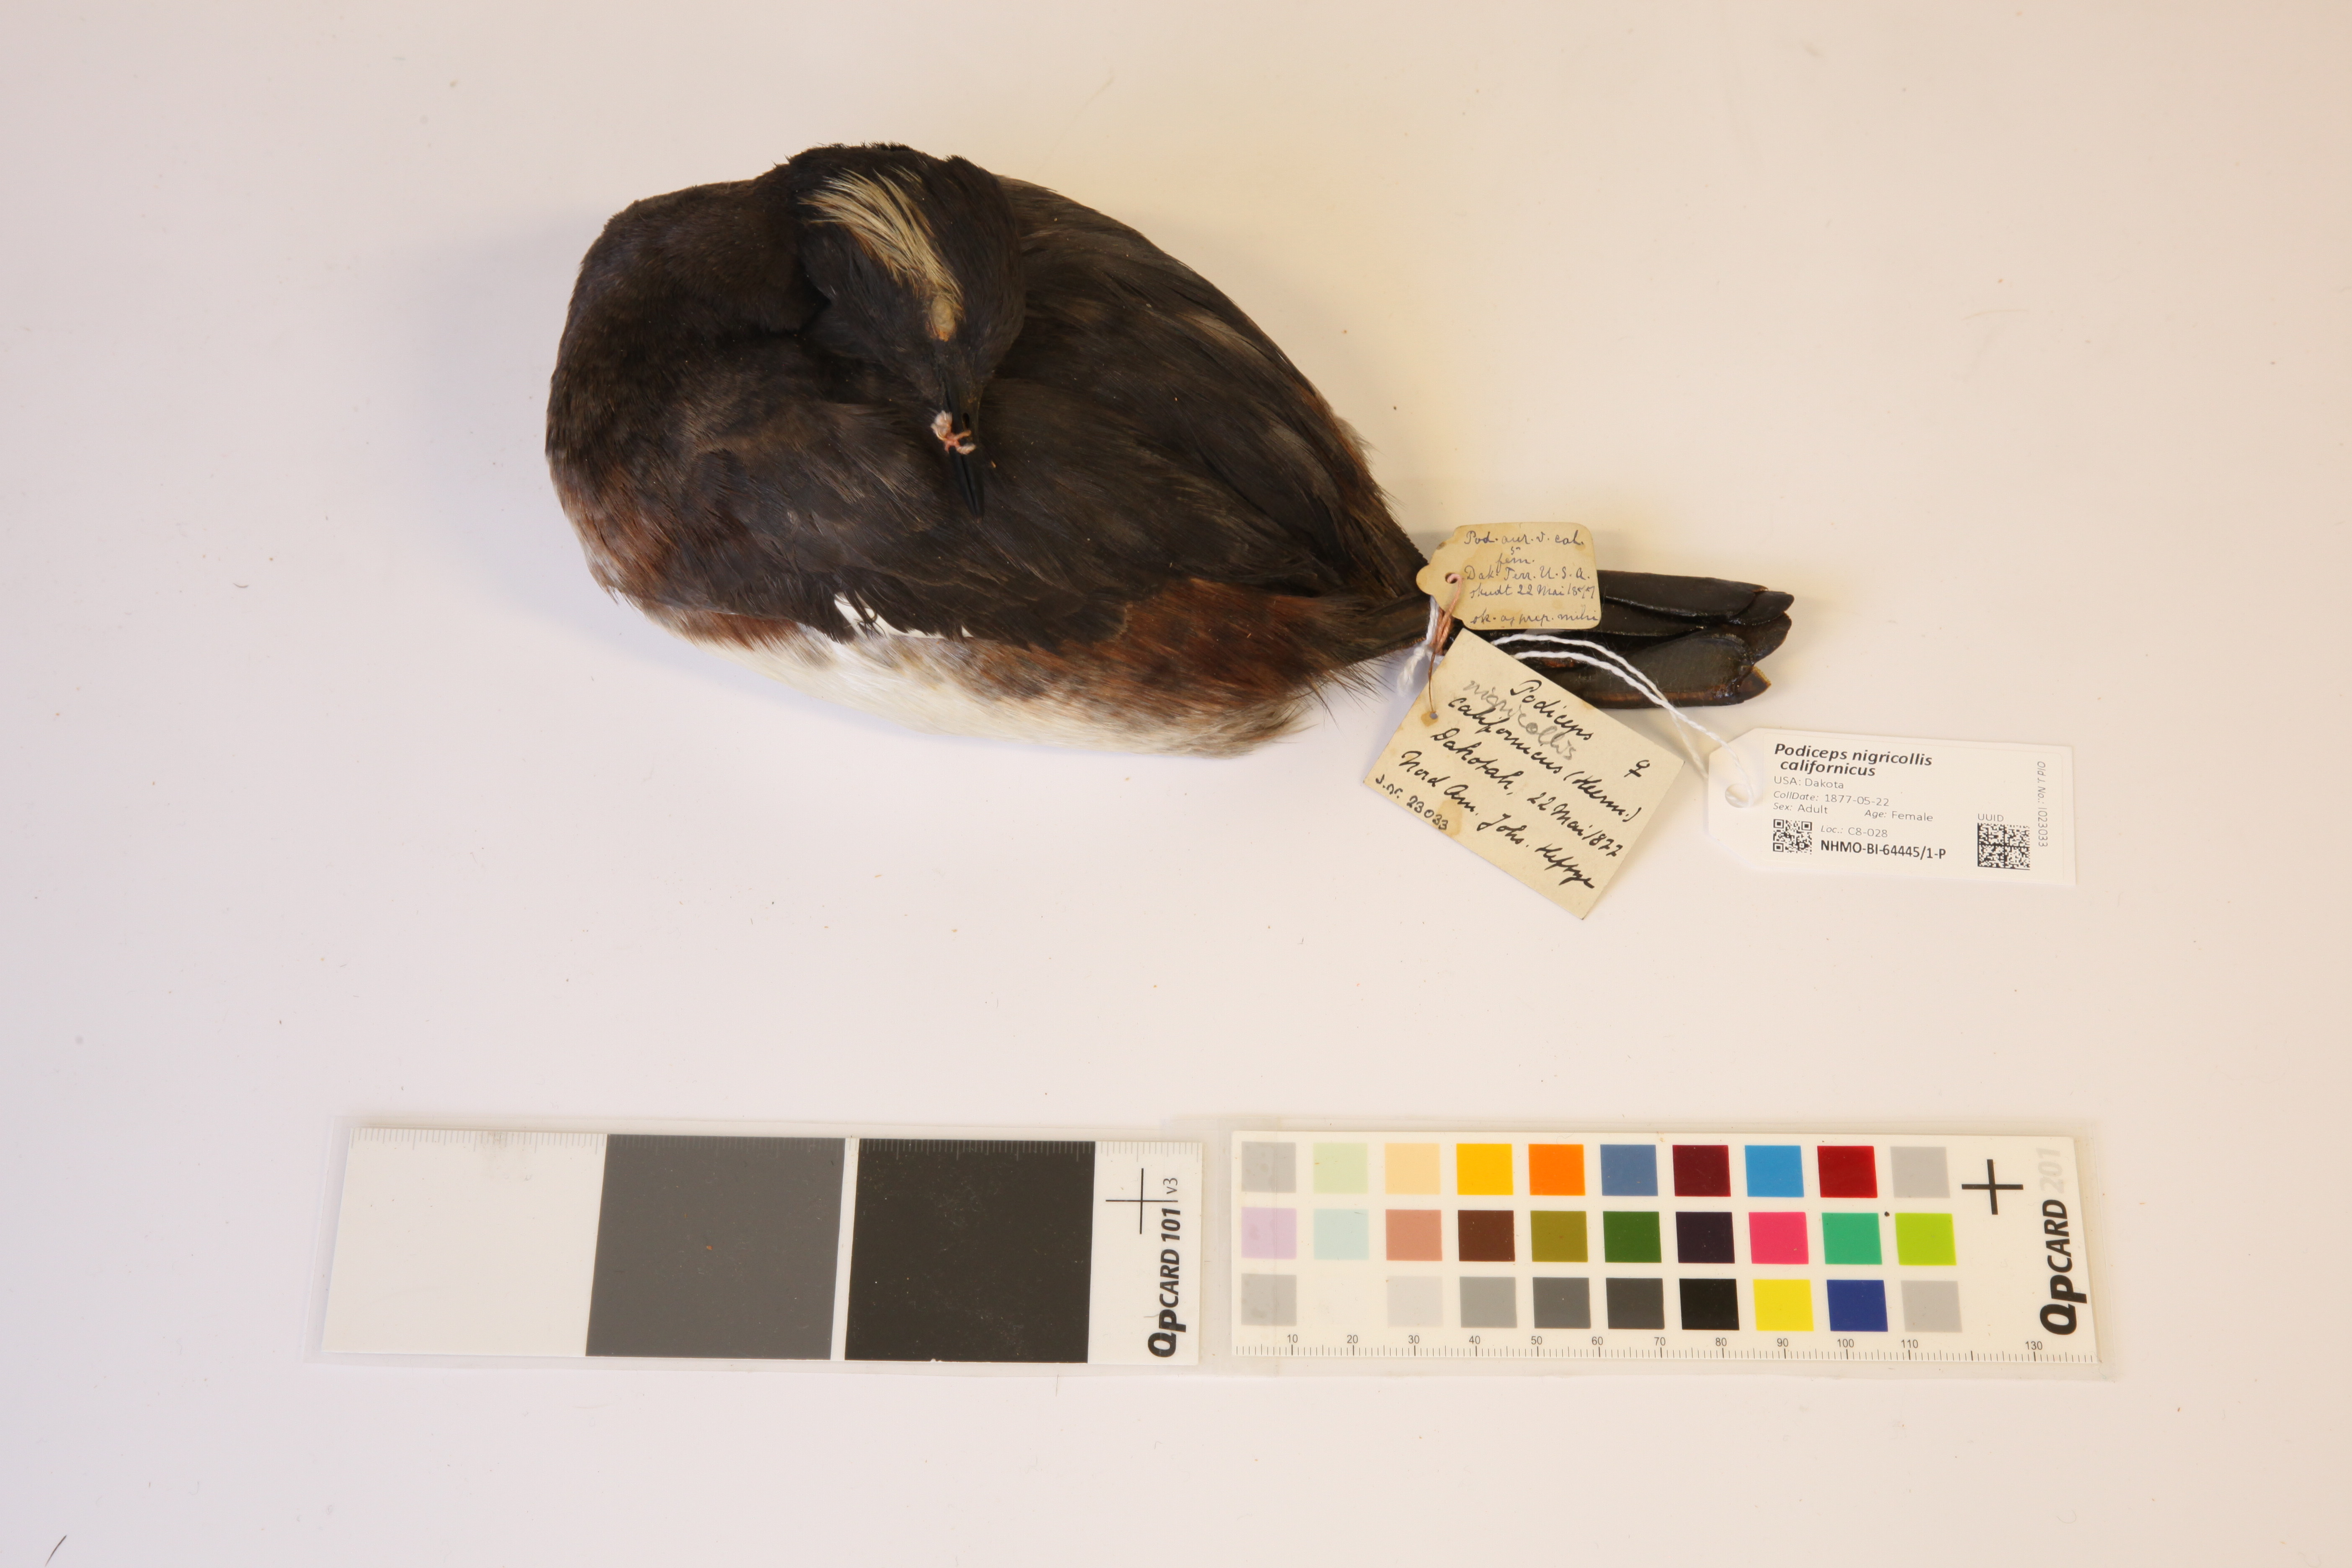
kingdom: Animalia
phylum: Chordata
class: Aves
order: Podicipediformes
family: Podicipedidae
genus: Podiceps
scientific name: Podiceps nigricollis
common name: Black-necked grebe
